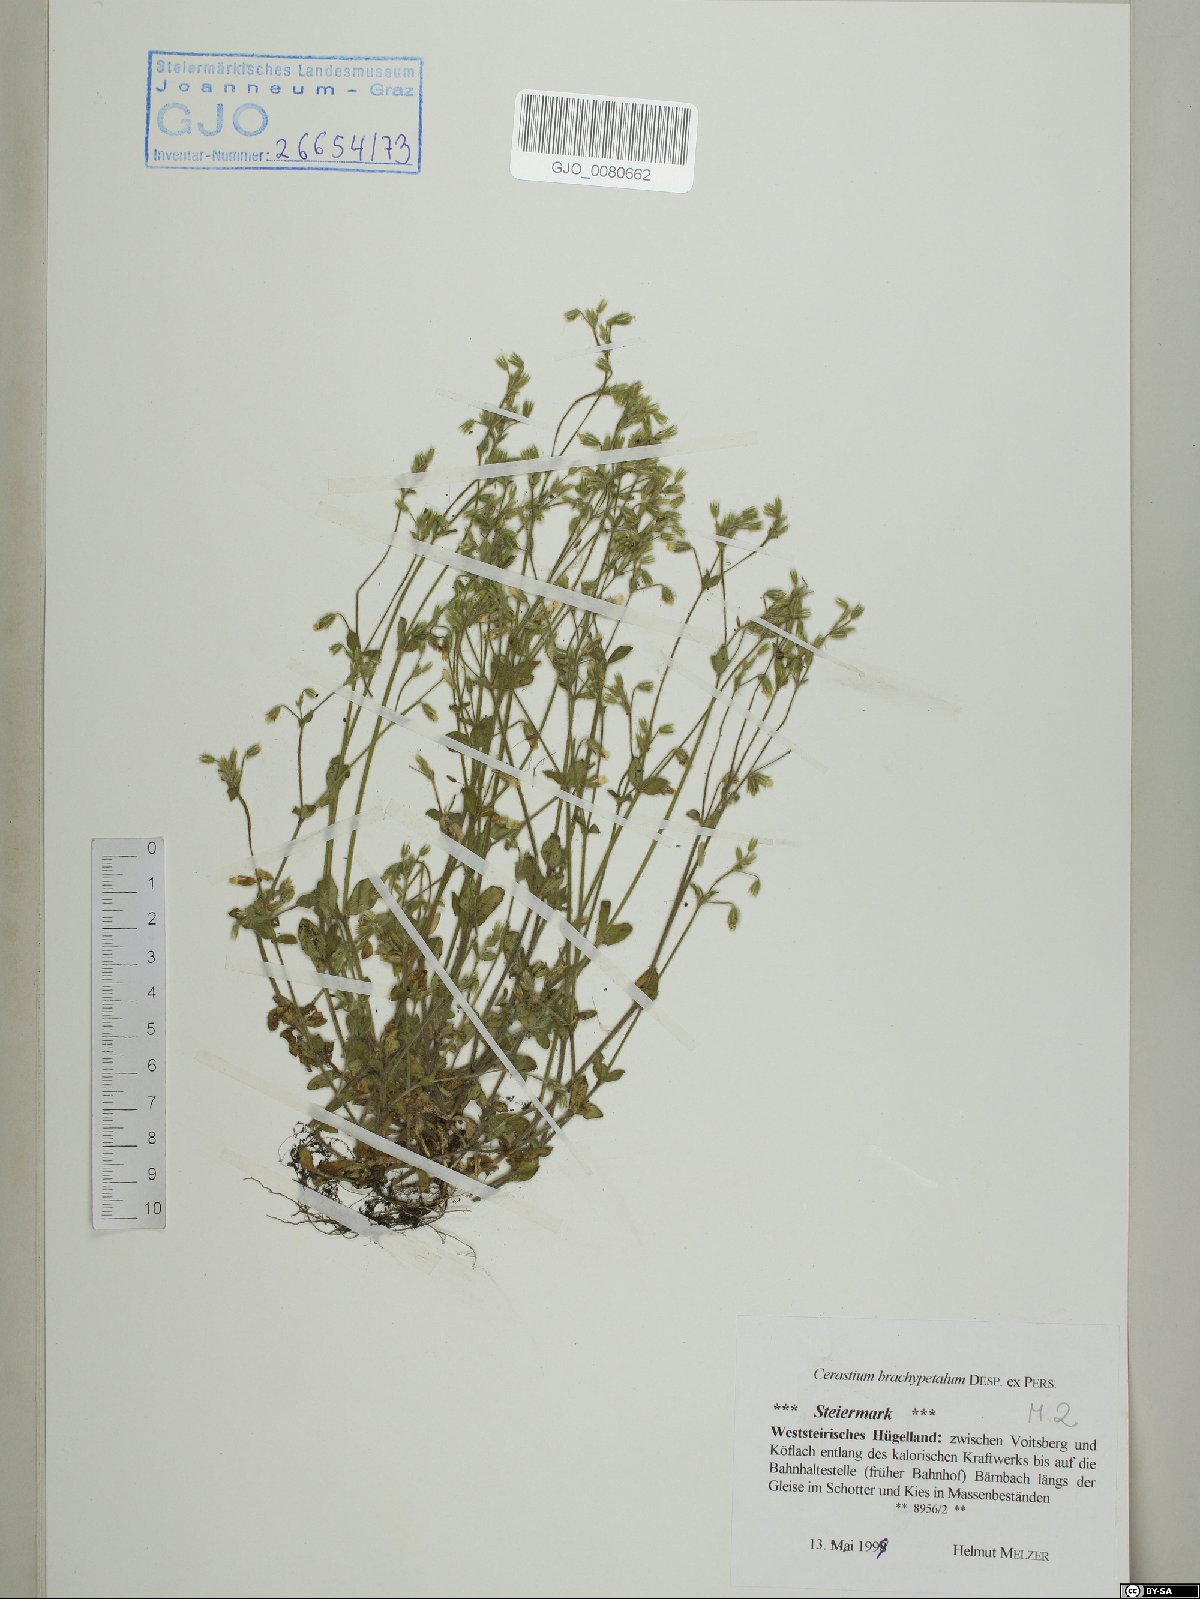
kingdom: Plantae
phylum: Tracheophyta
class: Magnoliopsida
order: Caryophyllales
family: Caryophyllaceae
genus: Cerastium
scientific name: Cerastium brachypetalum
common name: Grey mouse-ear
